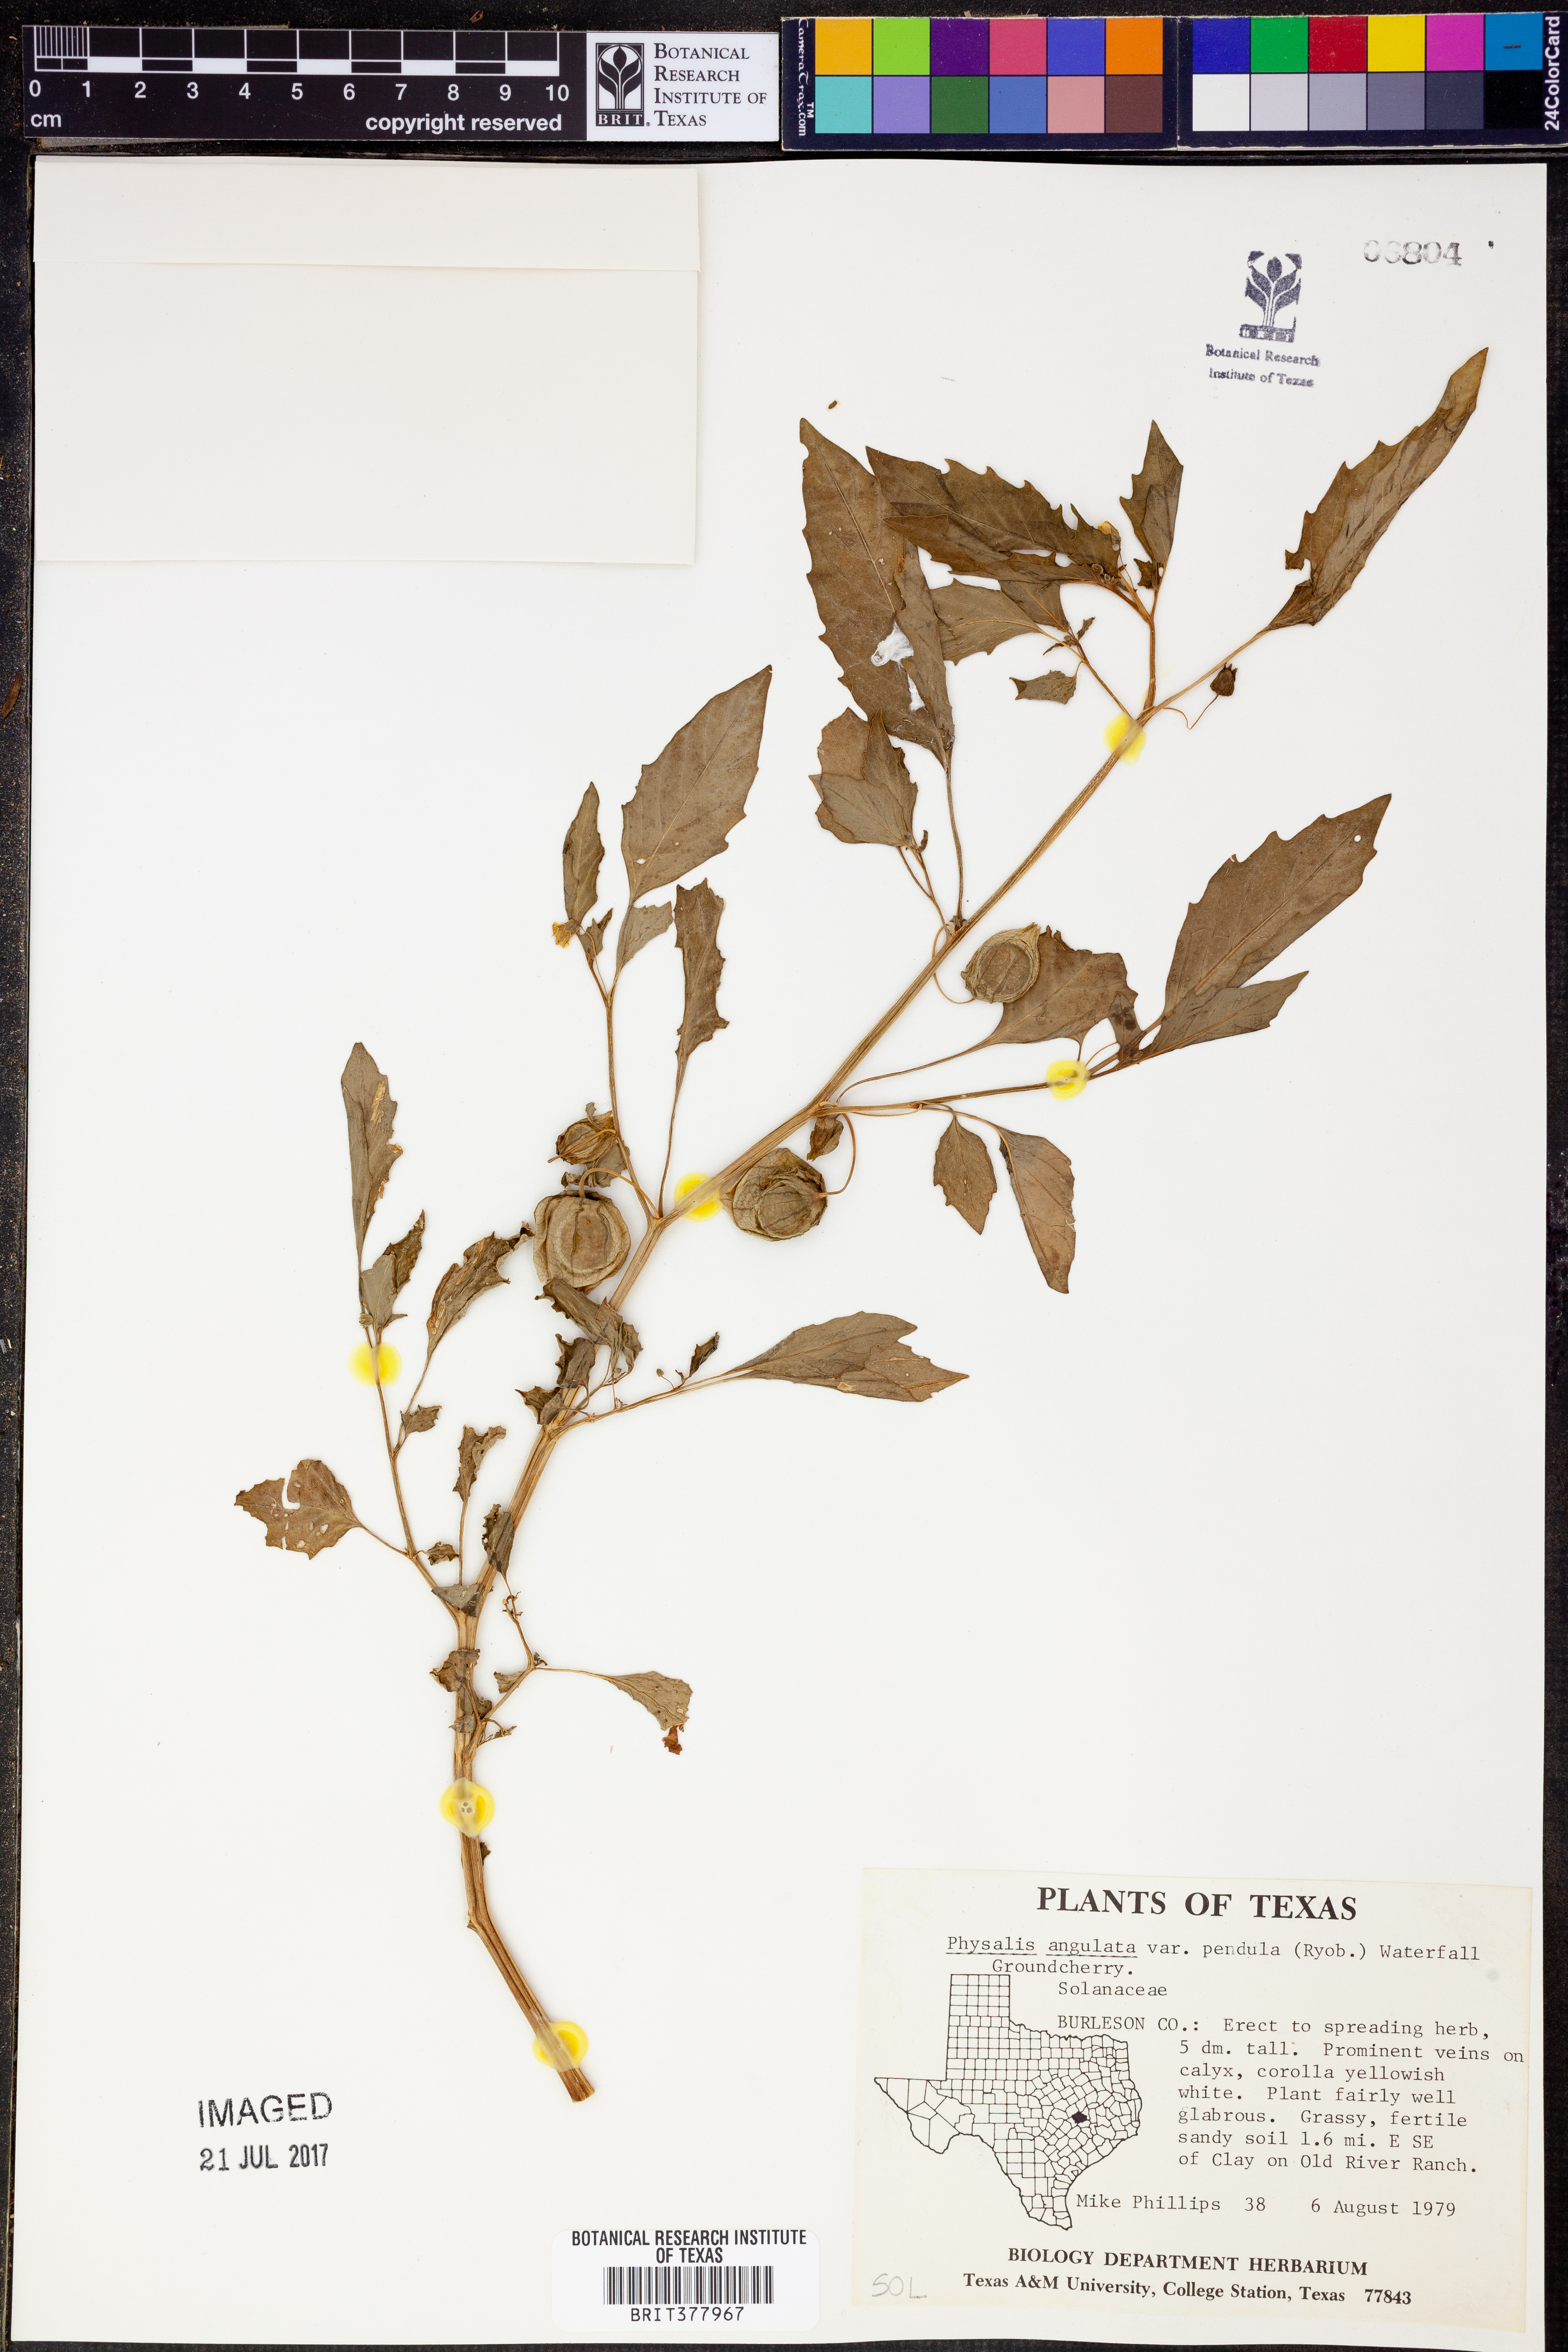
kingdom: Plantae
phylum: Tracheophyta
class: Magnoliopsida
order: Solanales
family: Solanaceae
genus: Physalis
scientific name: Physalis angulata
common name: Angular winter-cherry
